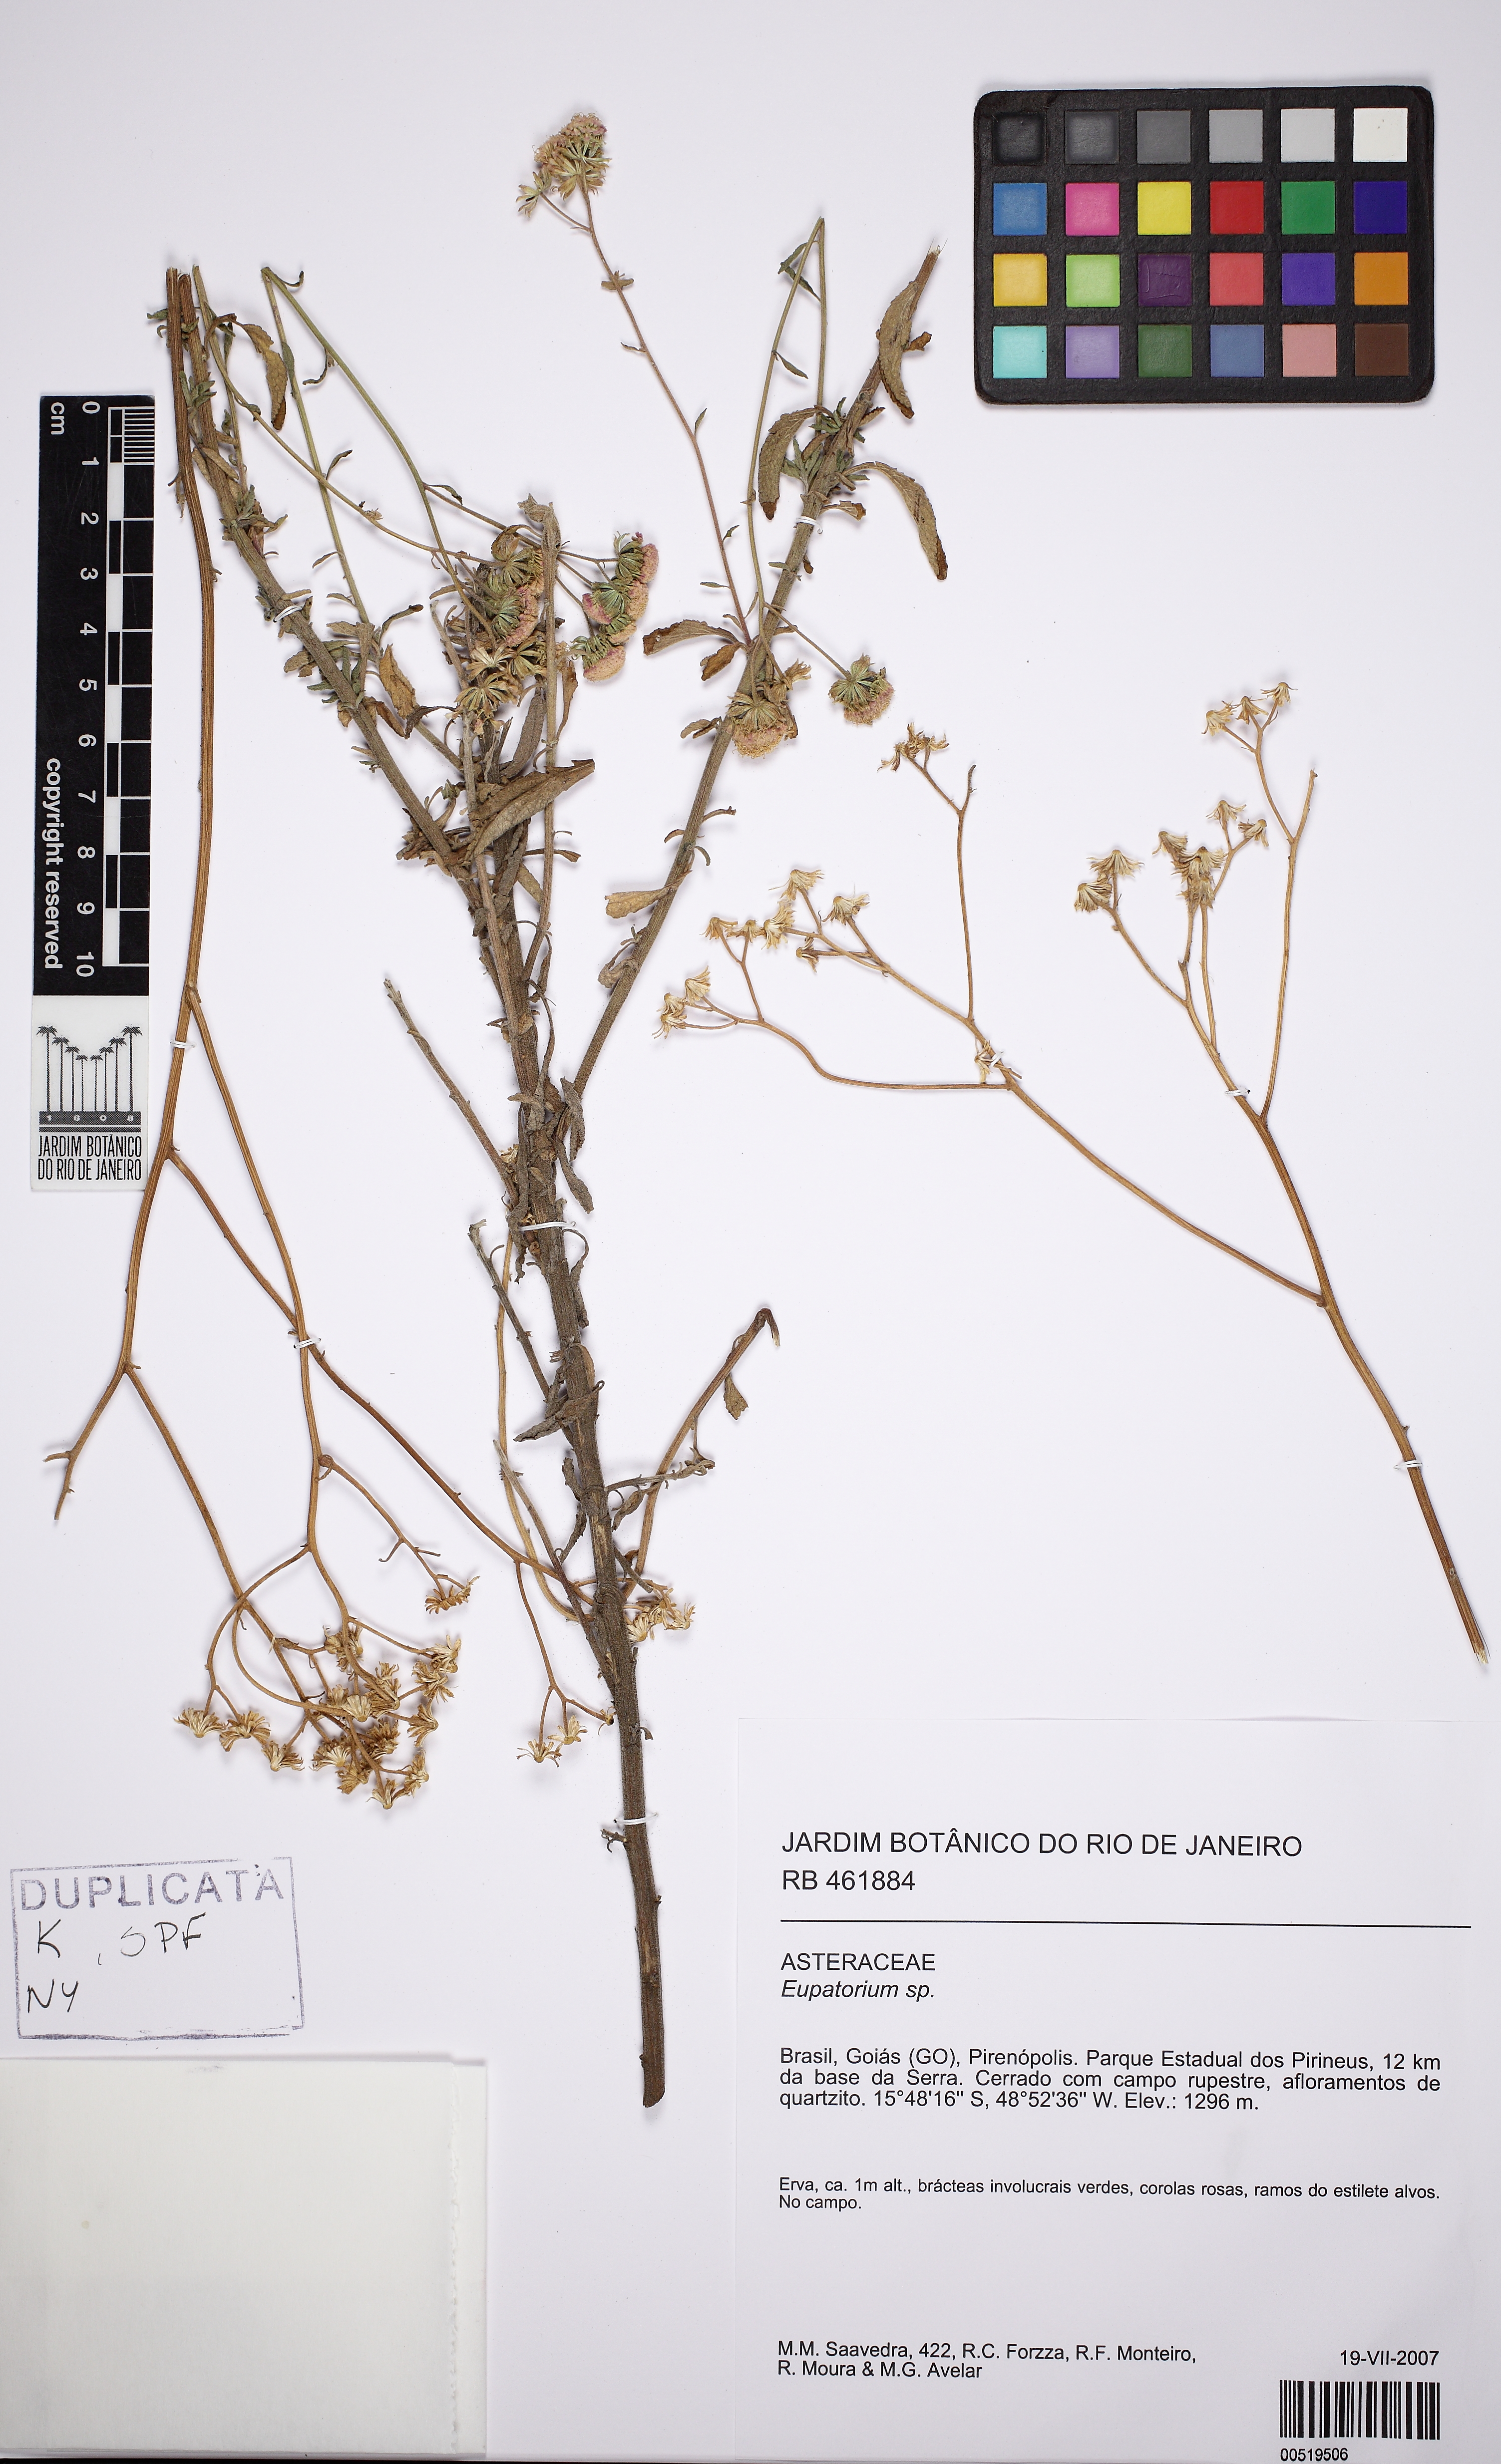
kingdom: Plantae
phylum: Tracheophyta
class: Magnoliopsida
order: Asterales
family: Asteraceae
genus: Eupatorium
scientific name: Eupatorium
